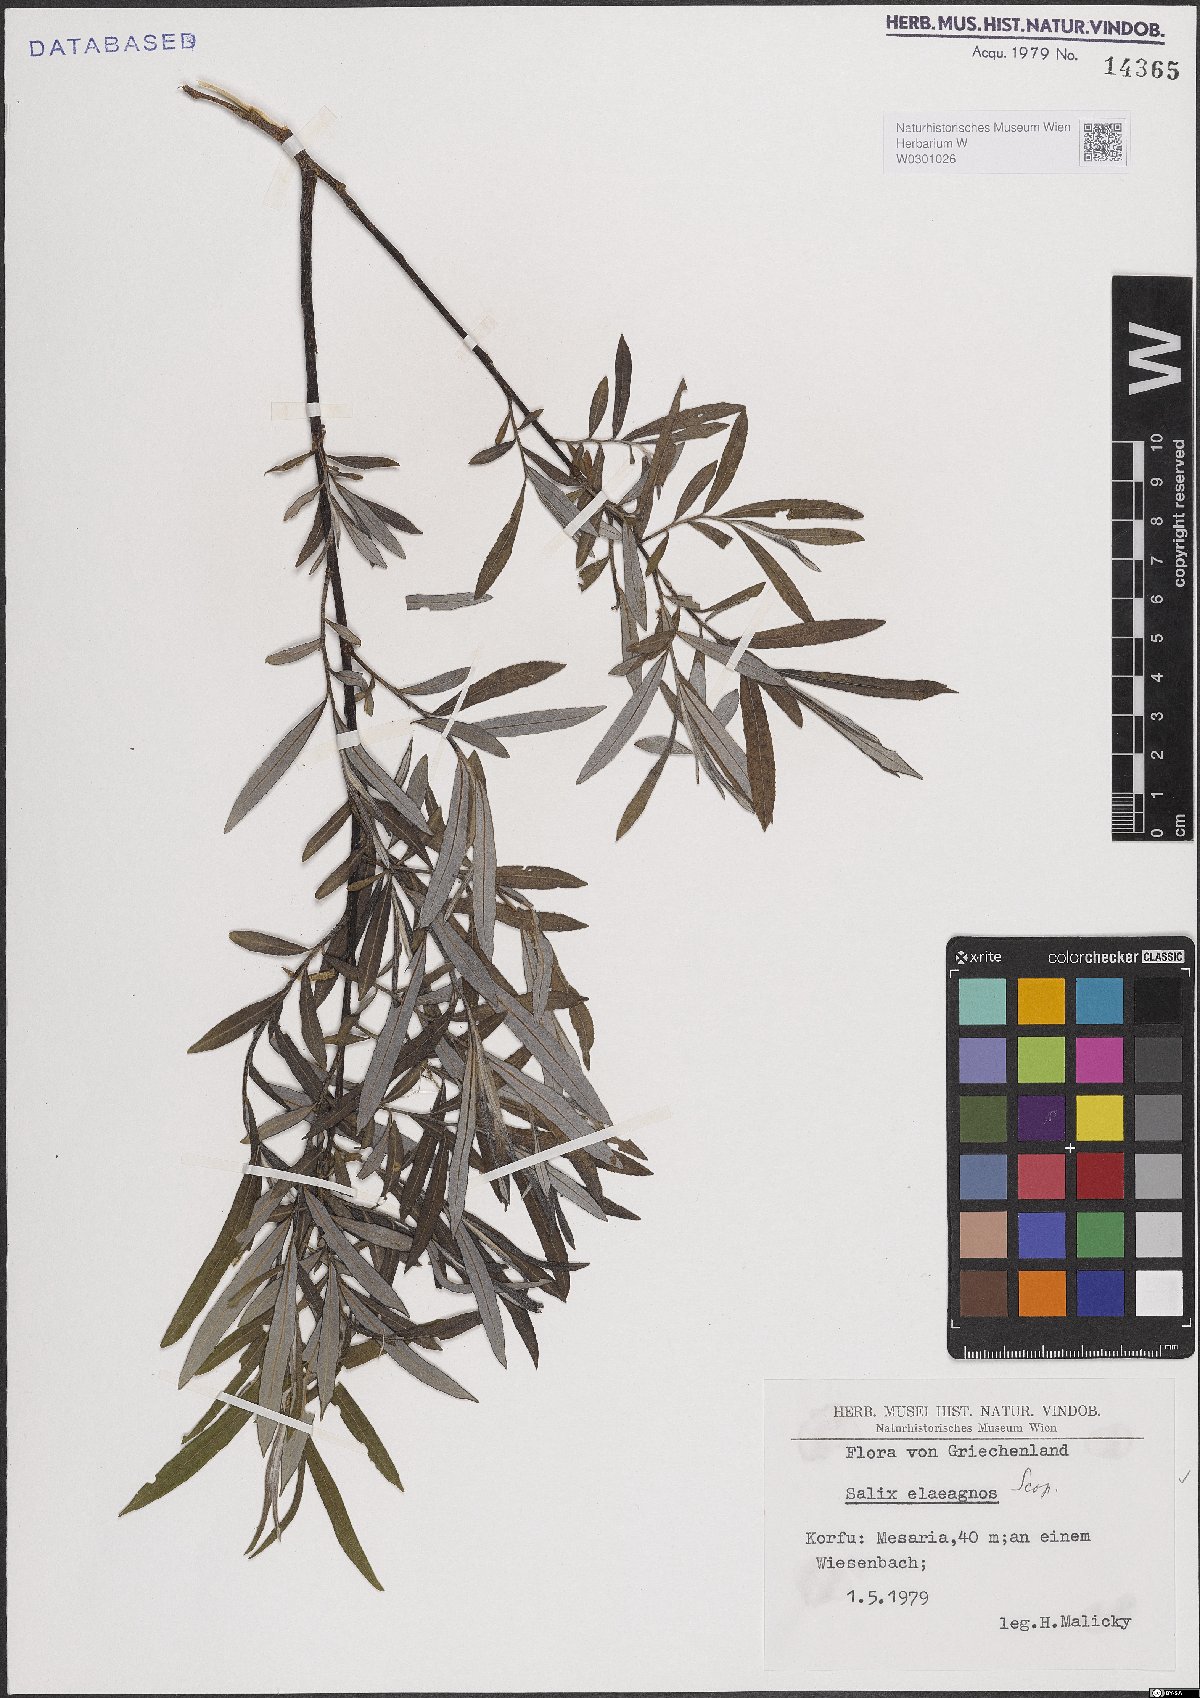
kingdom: Plantae
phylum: Tracheophyta
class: Magnoliopsida
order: Malpighiales
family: Salicaceae
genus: Salix
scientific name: Salix eleagnos
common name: Elaeagnus willow
